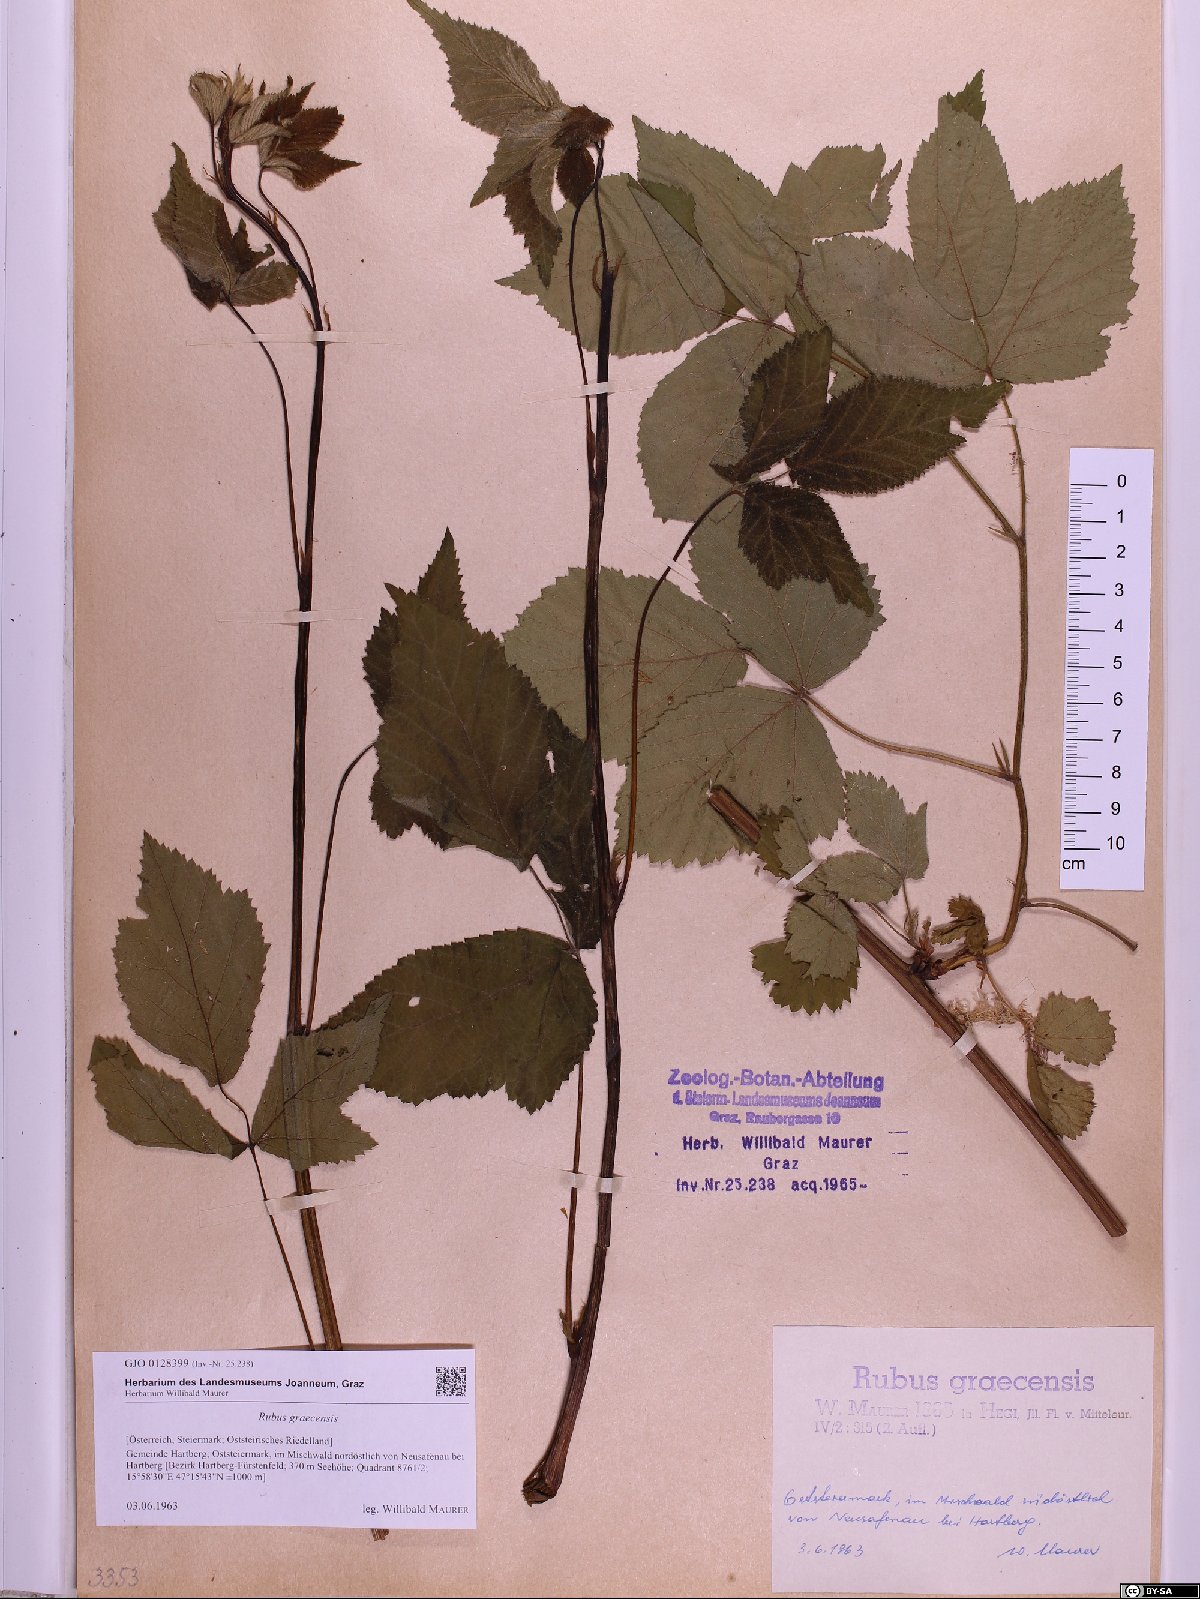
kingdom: Plantae
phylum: Tracheophyta
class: Magnoliopsida
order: Rosales
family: Rosaceae
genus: Rubus
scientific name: Rubus graecensis
